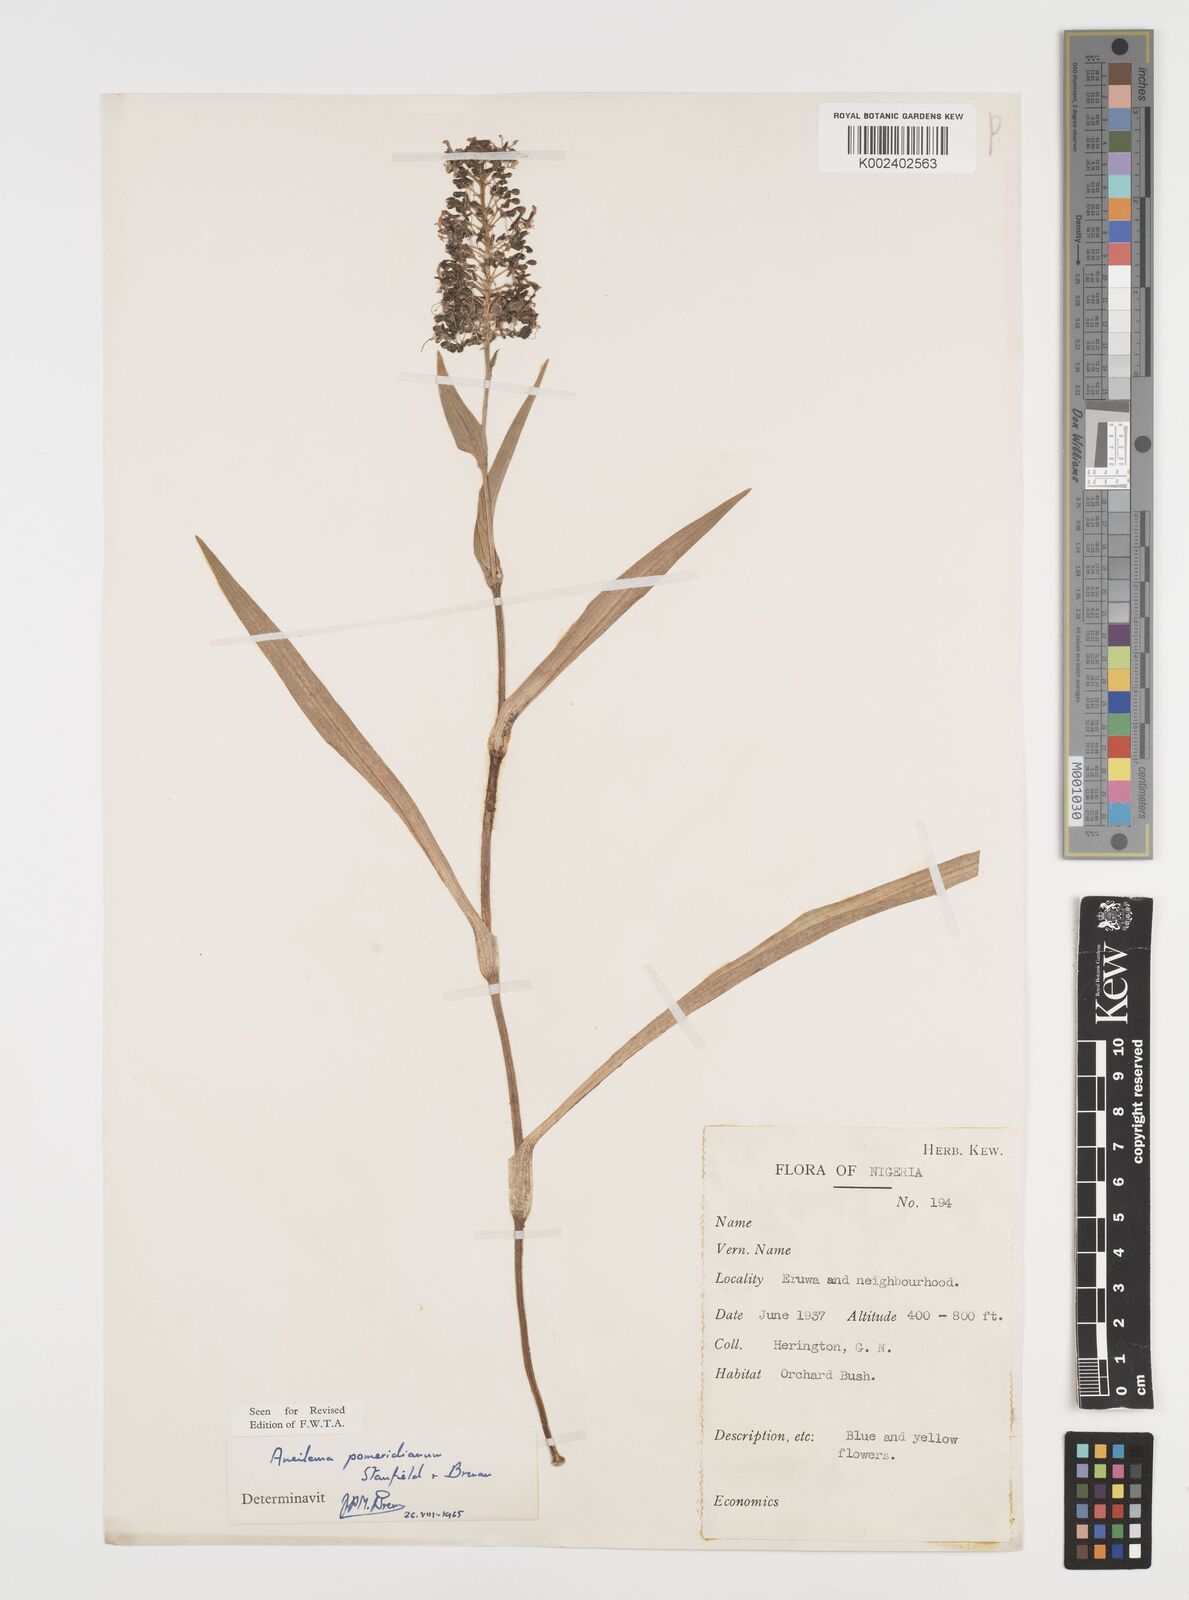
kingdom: Plantae
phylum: Tracheophyta
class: Liliopsida
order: Commelinales
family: Commelinaceae
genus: Aneilema
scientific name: Aneilema pomeridianum
